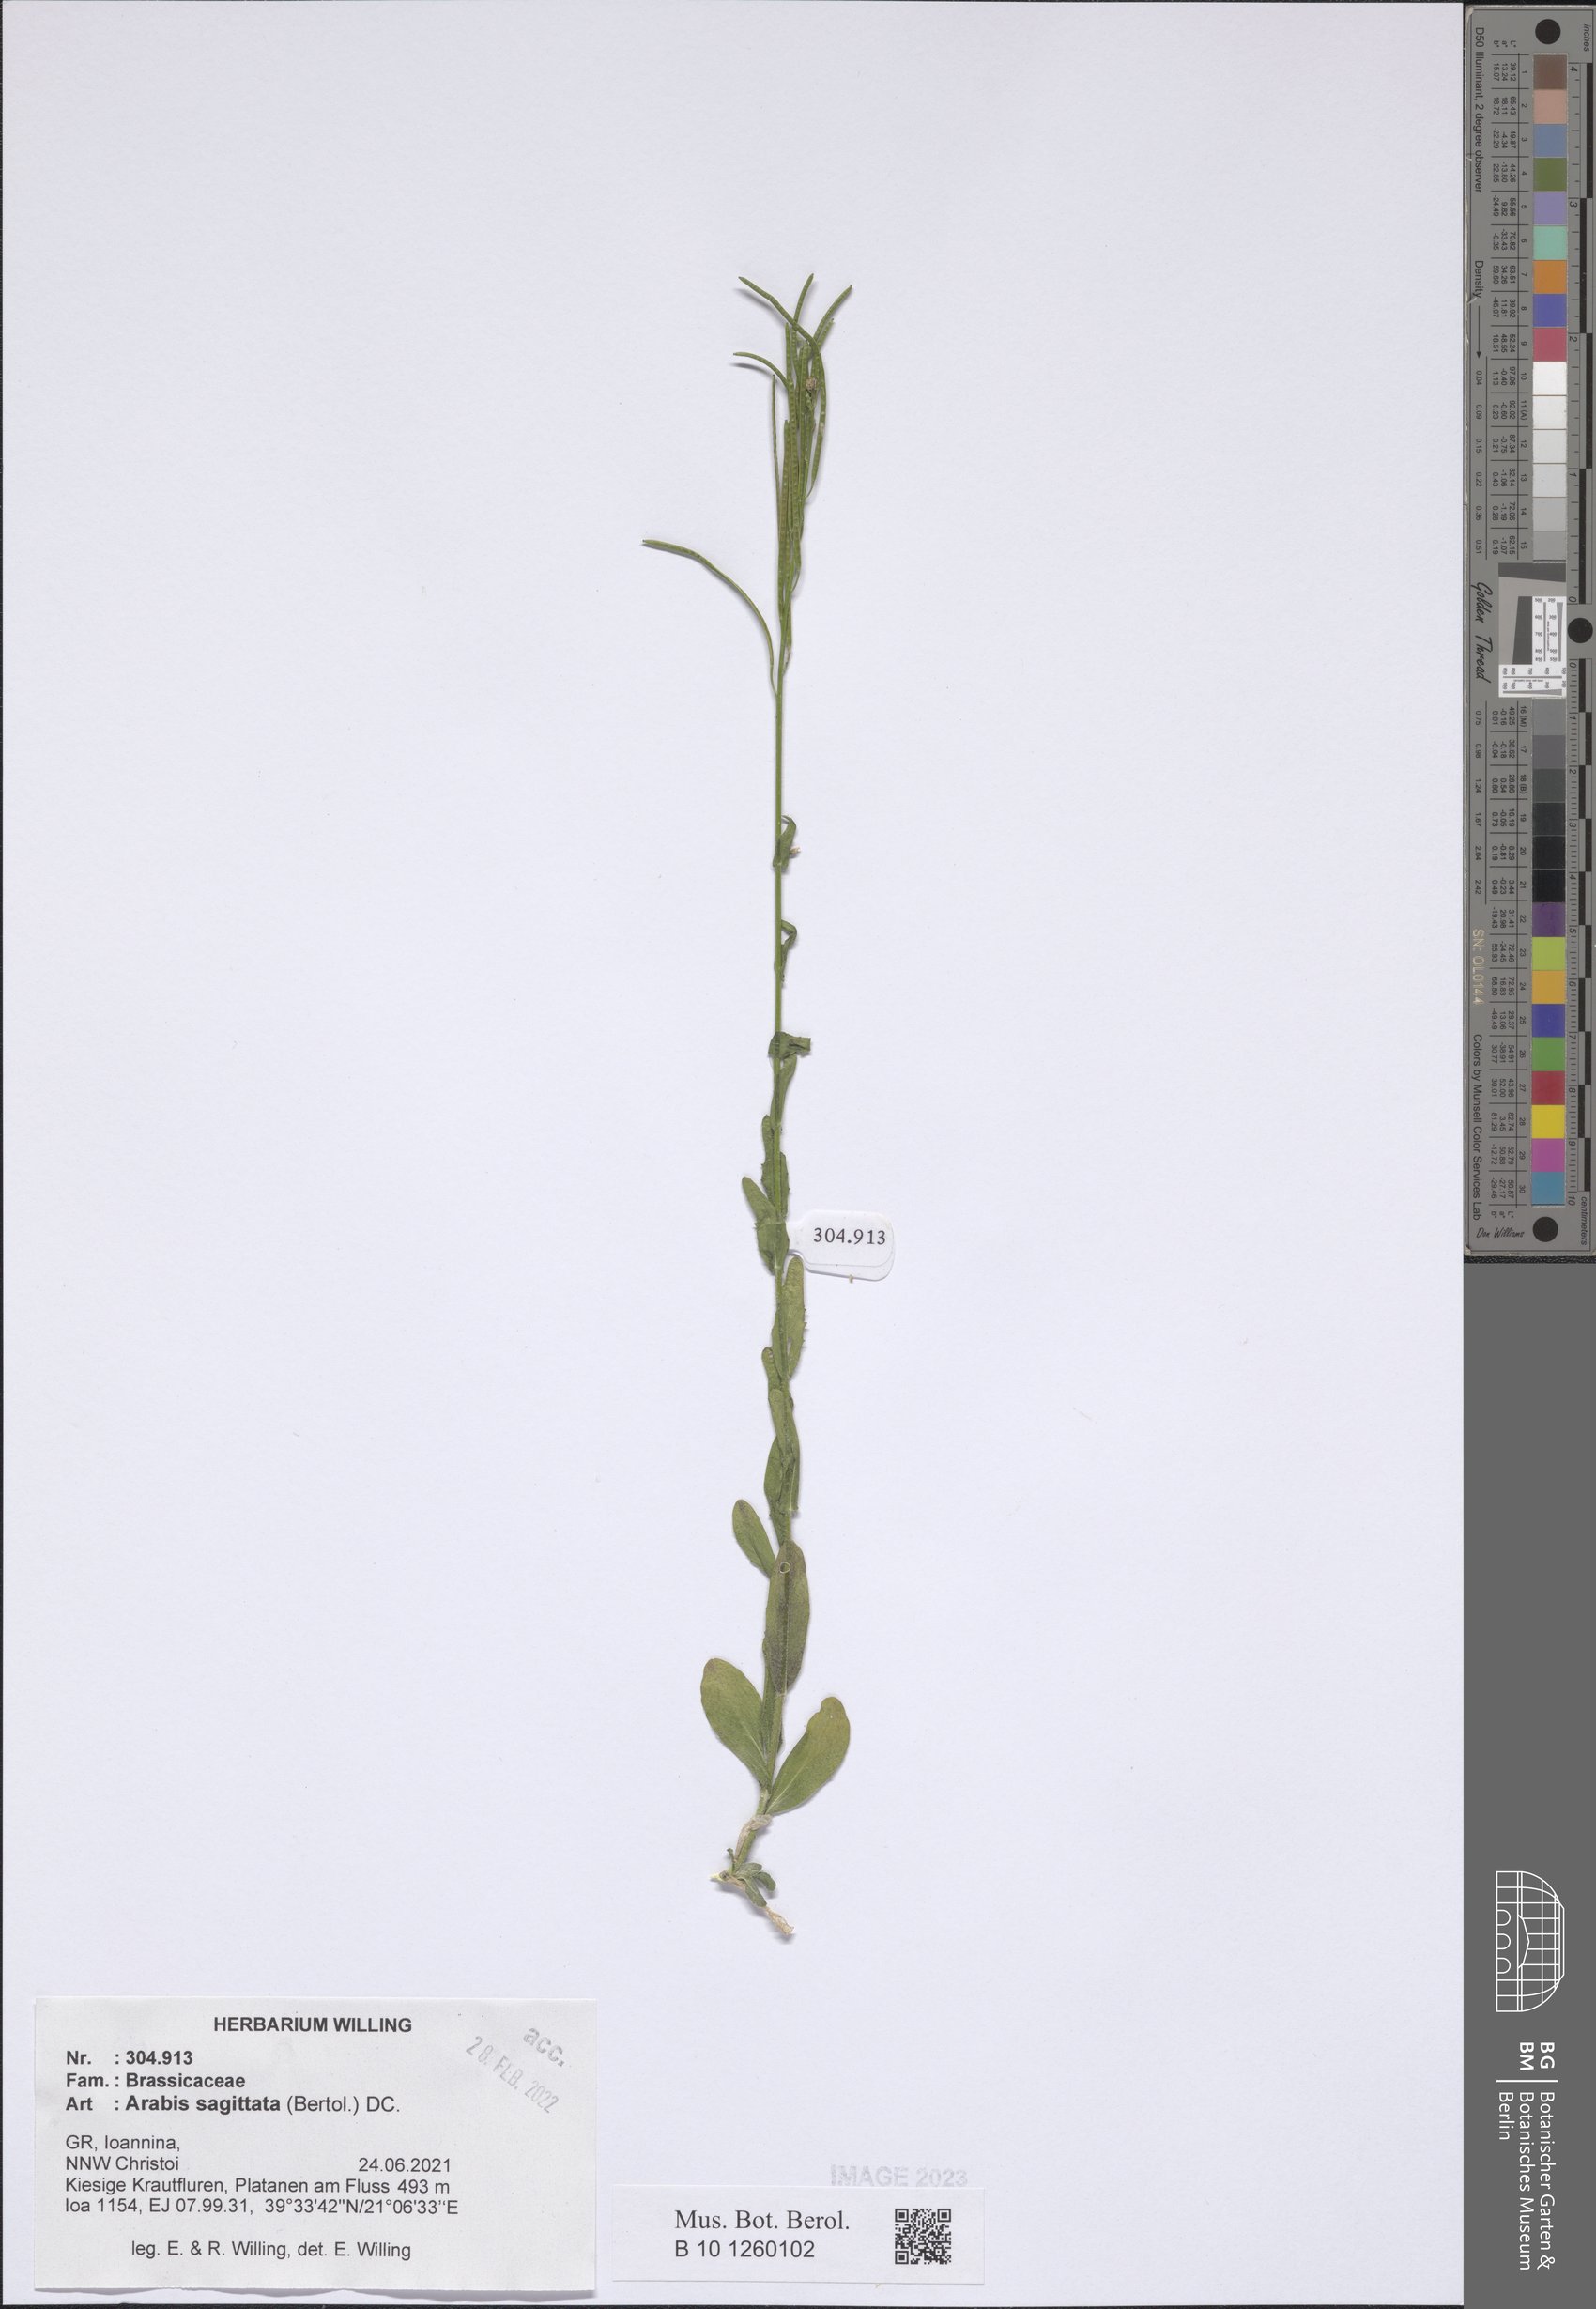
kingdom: Plantae
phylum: Tracheophyta
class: Magnoliopsida
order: Brassicales
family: Brassicaceae
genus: Arabis
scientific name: Arabis sagittata
